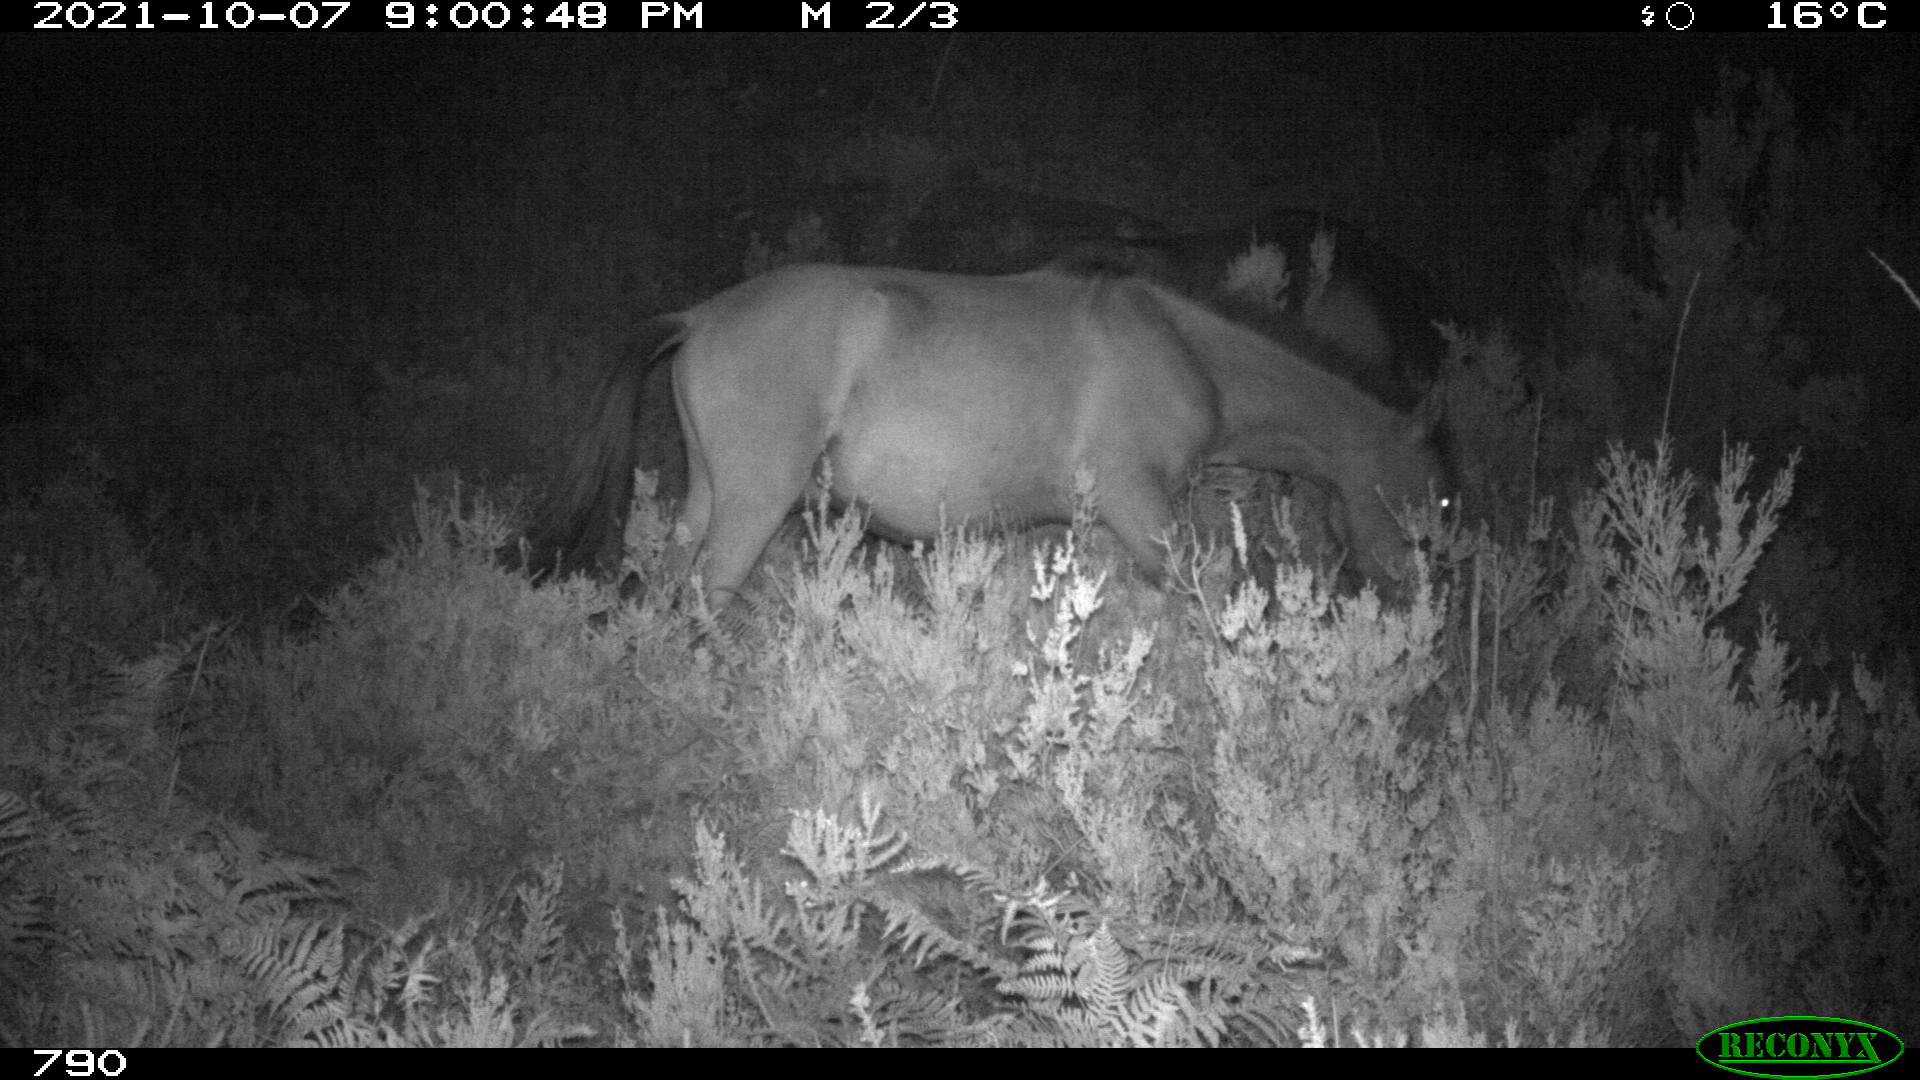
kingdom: Animalia
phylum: Chordata
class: Mammalia
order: Perissodactyla
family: Equidae
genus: Equus
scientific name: Equus caballus
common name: Horse
